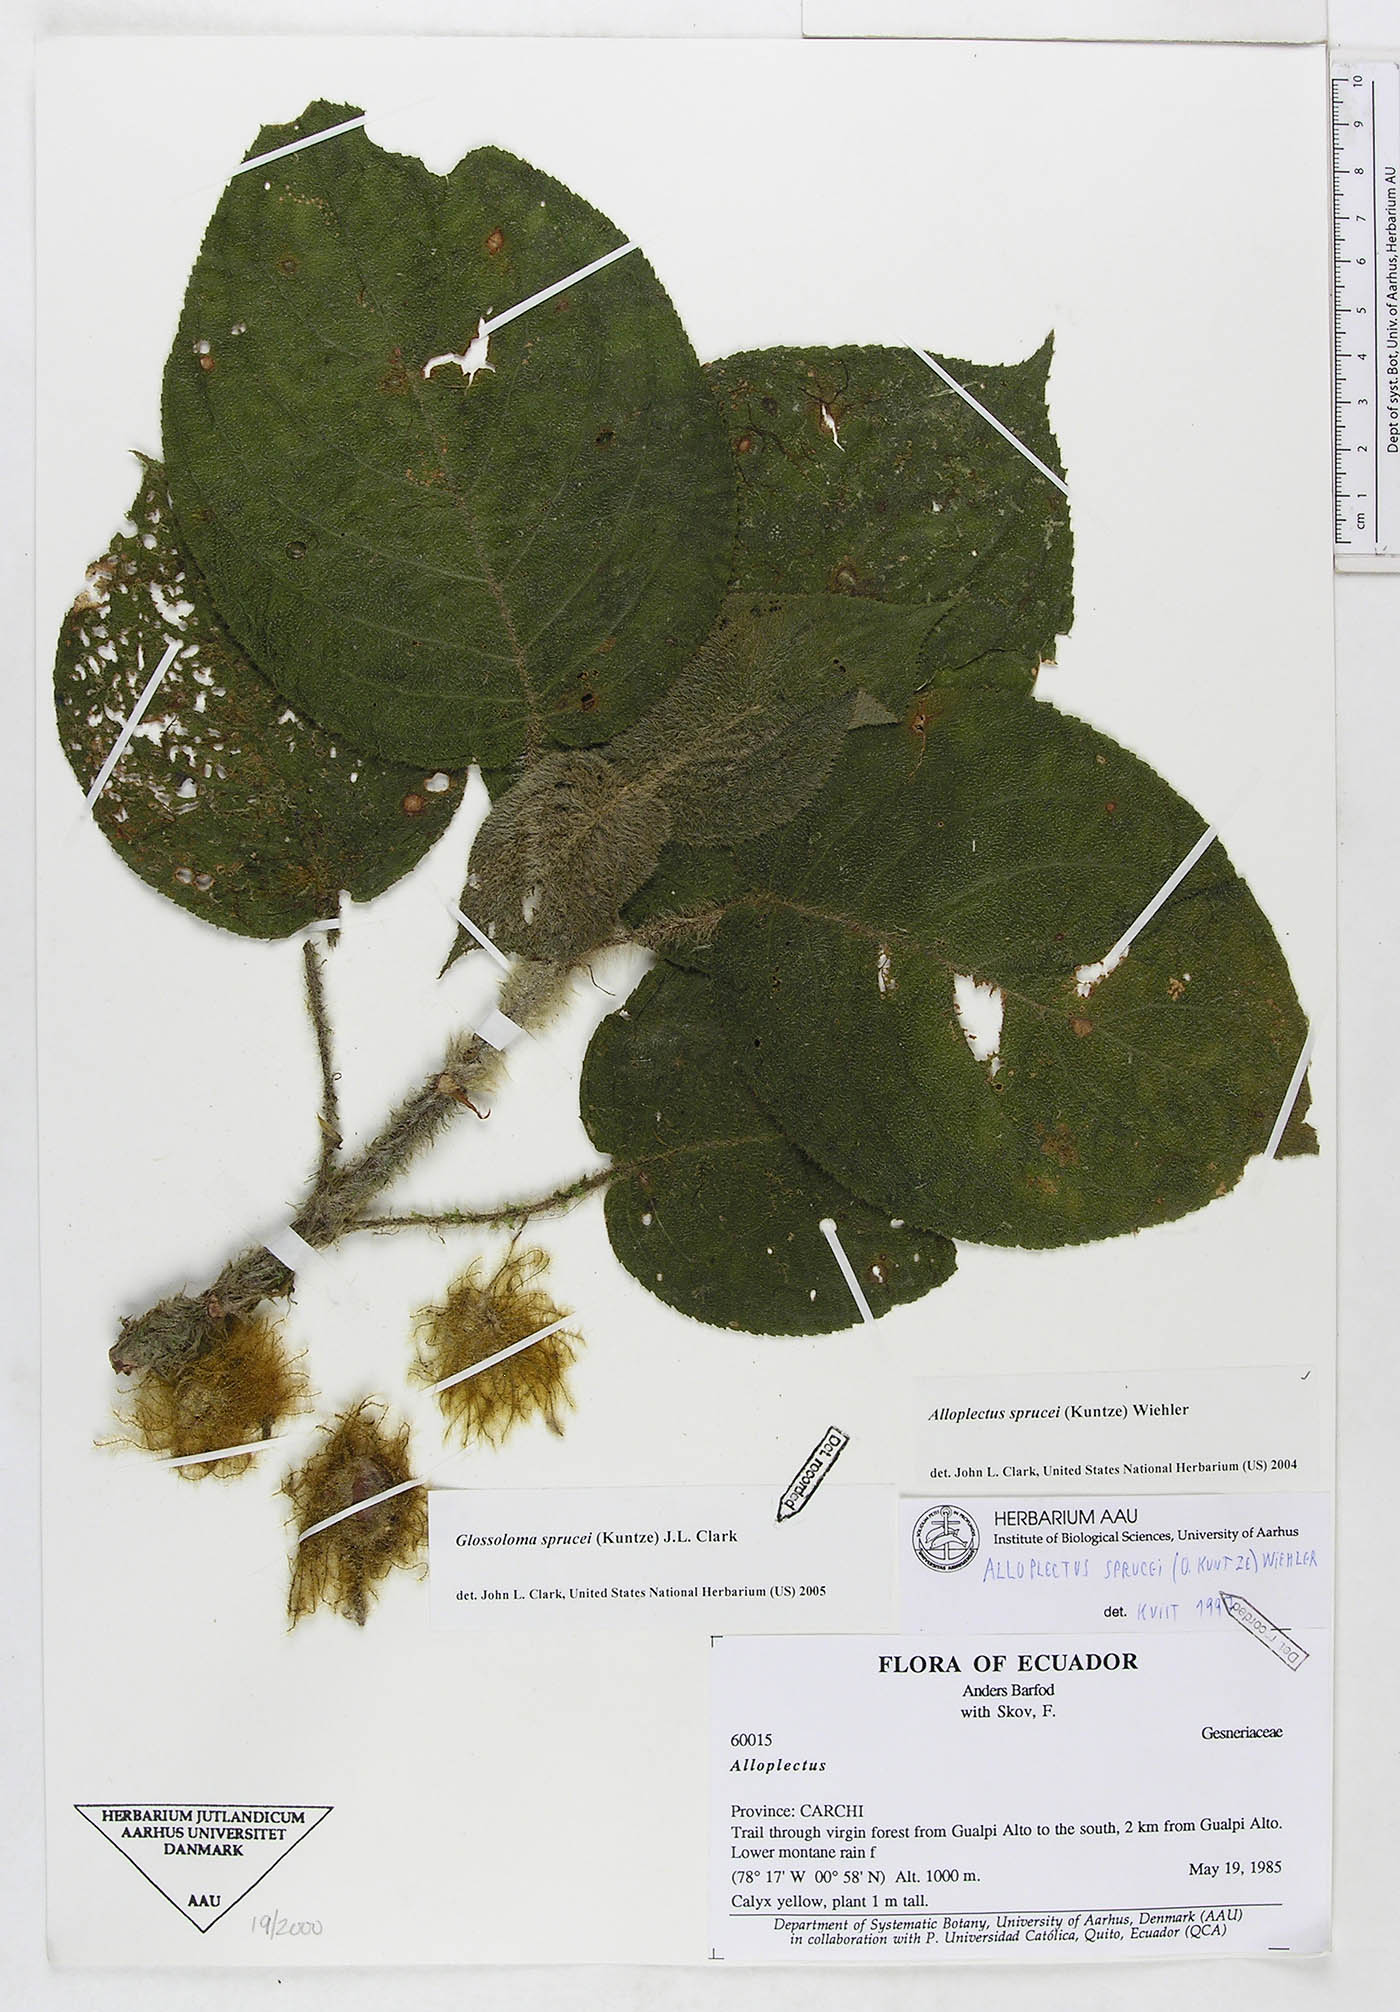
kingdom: Plantae
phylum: Tracheophyta
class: Magnoliopsida
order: Lamiales
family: Gesneriaceae
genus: Glossoloma
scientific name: Glossoloma sprucei
